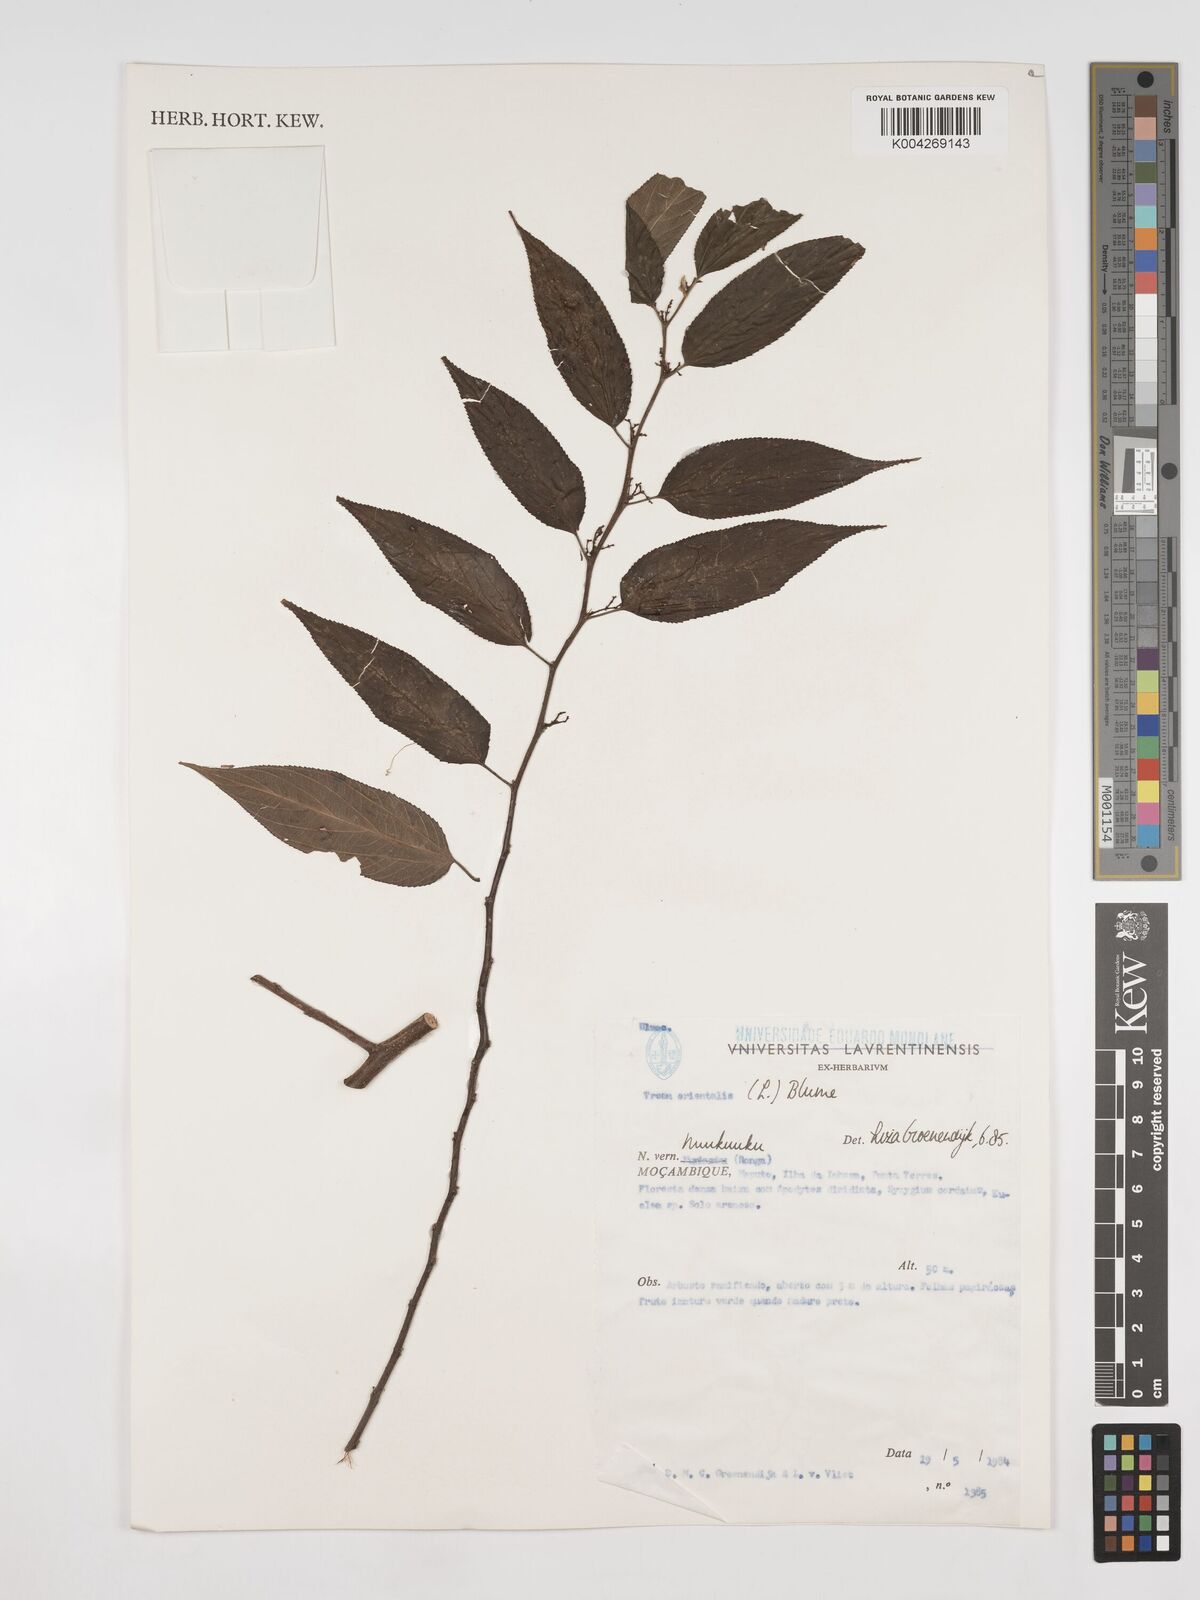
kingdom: Plantae
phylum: Tracheophyta
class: Magnoliopsida
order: Rosales
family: Cannabaceae
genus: Trema
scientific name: Trema orientale
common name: Indian charcoal tree
